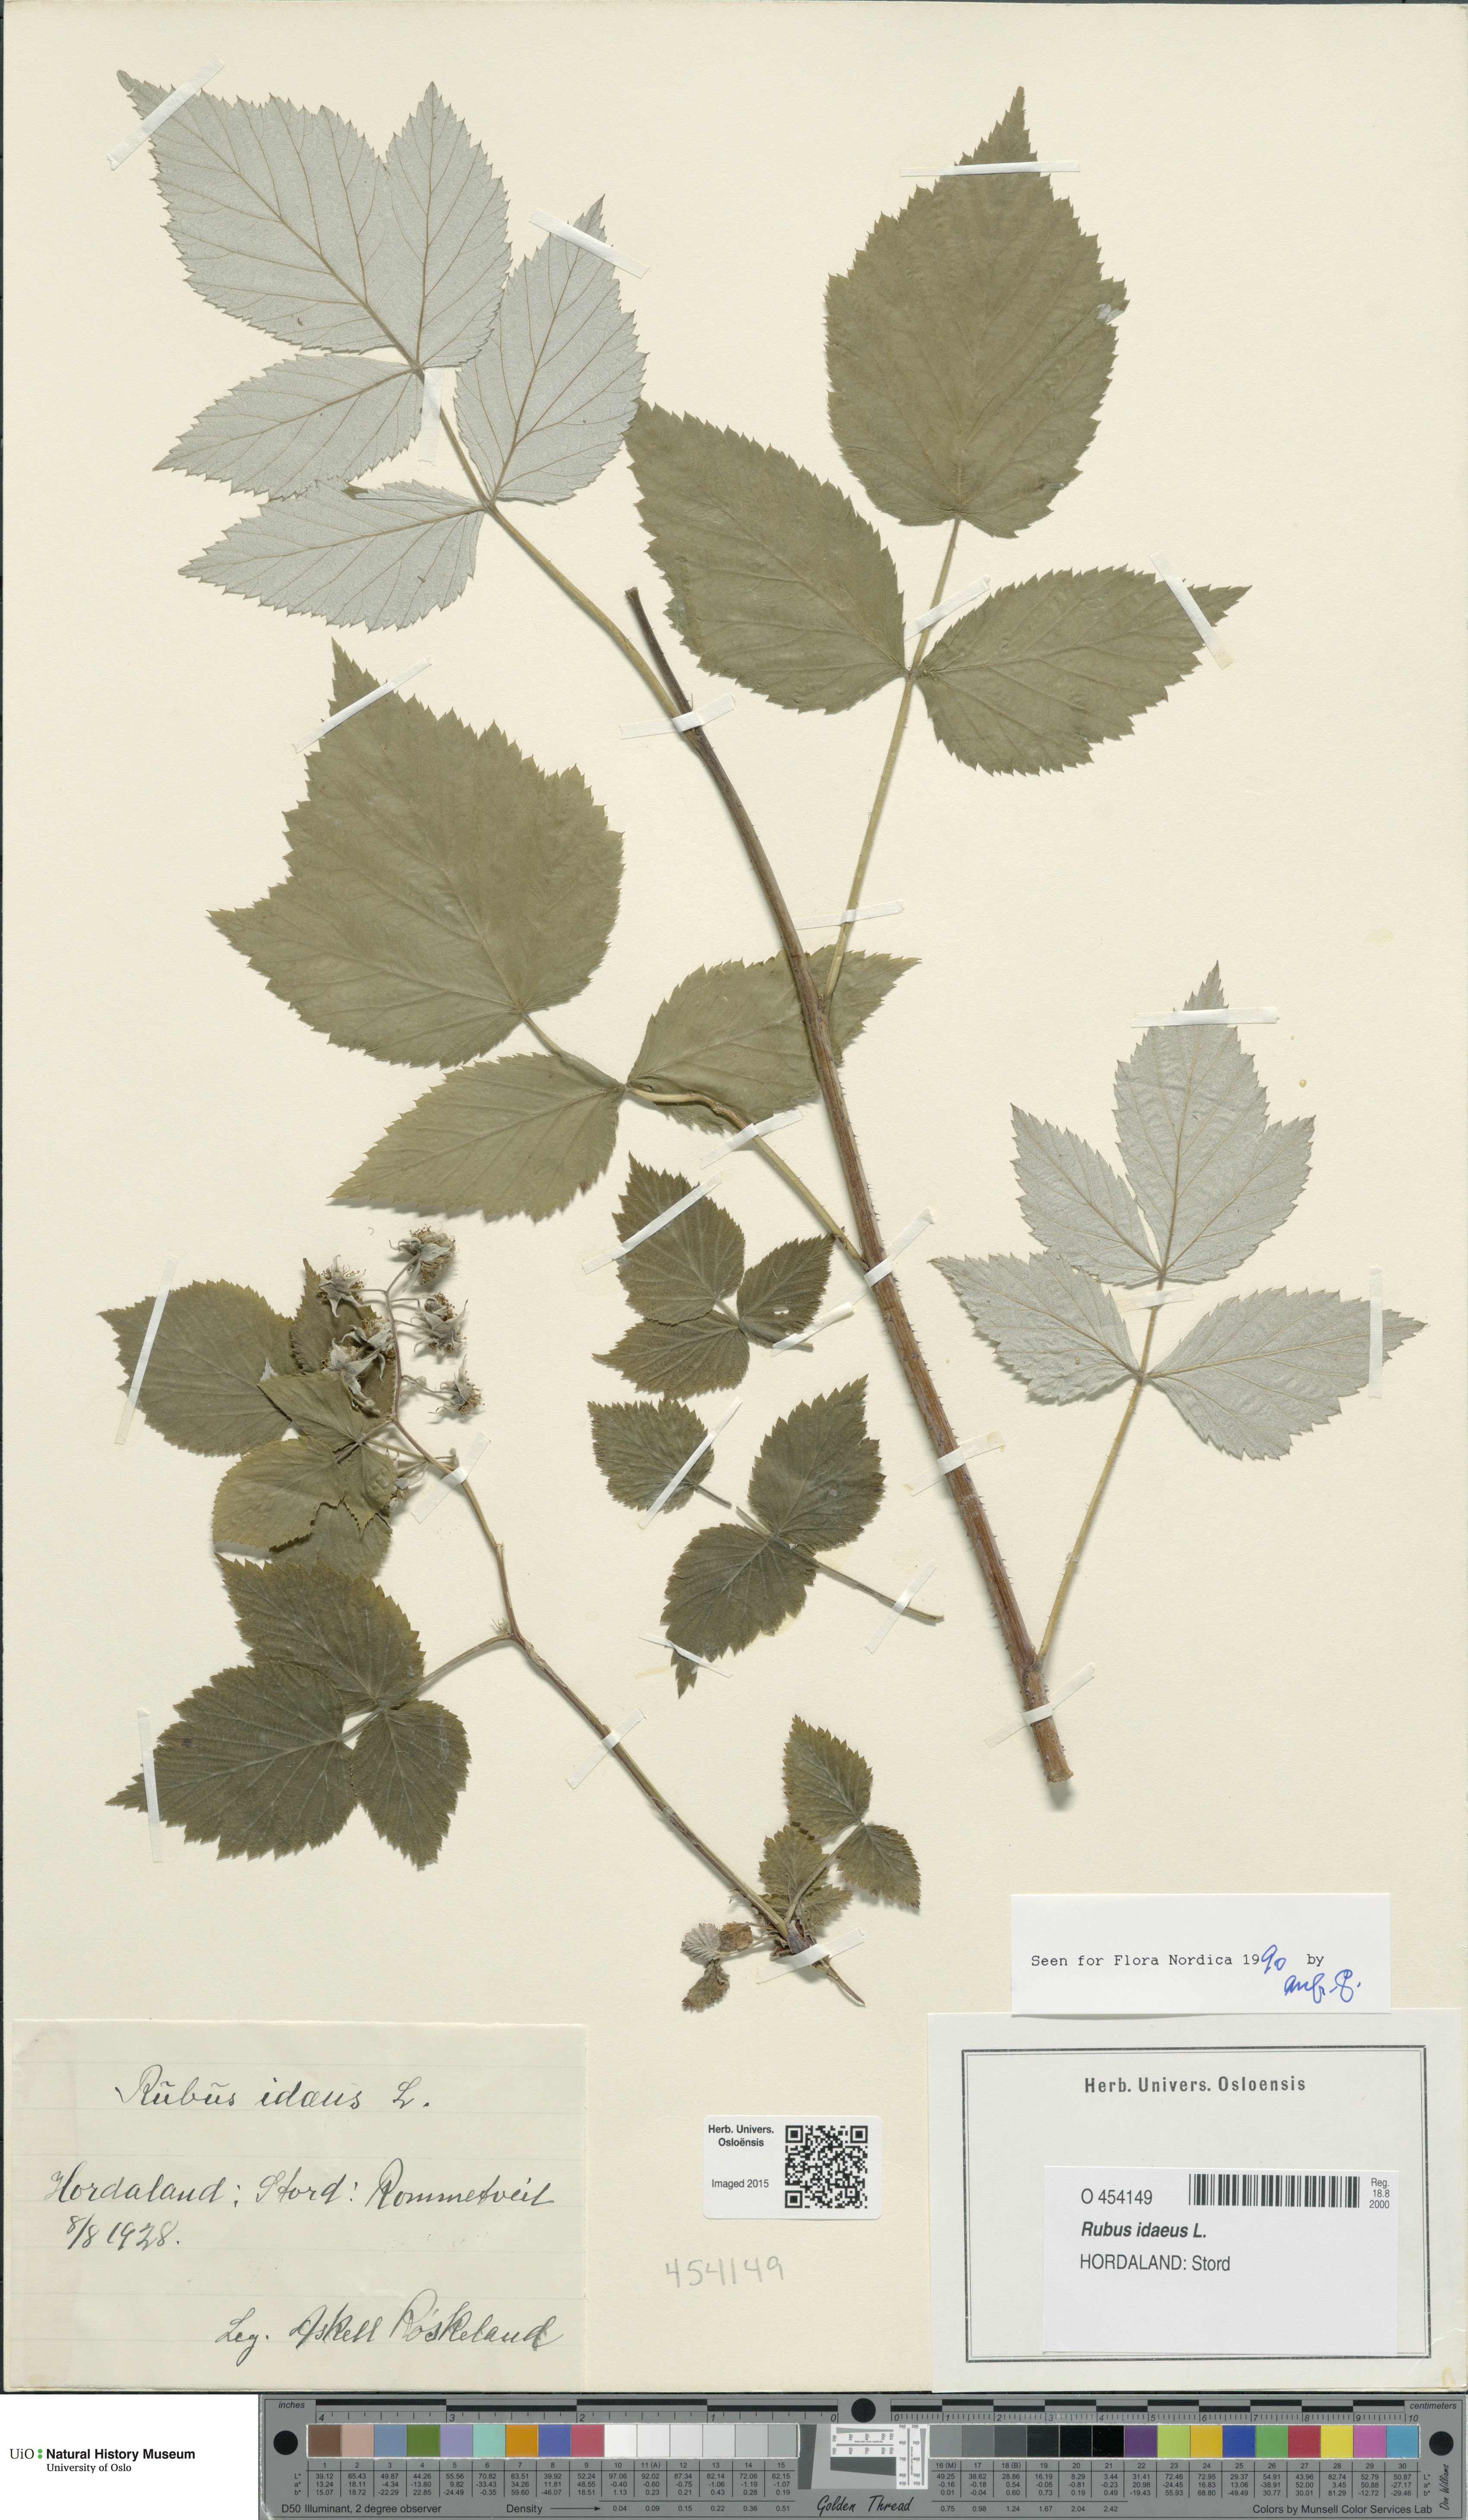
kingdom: Plantae
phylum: Tracheophyta
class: Magnoliopsida
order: Rosales
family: Rosaceae
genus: Rubus
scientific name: Rubus idaeus
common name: Raspberry
